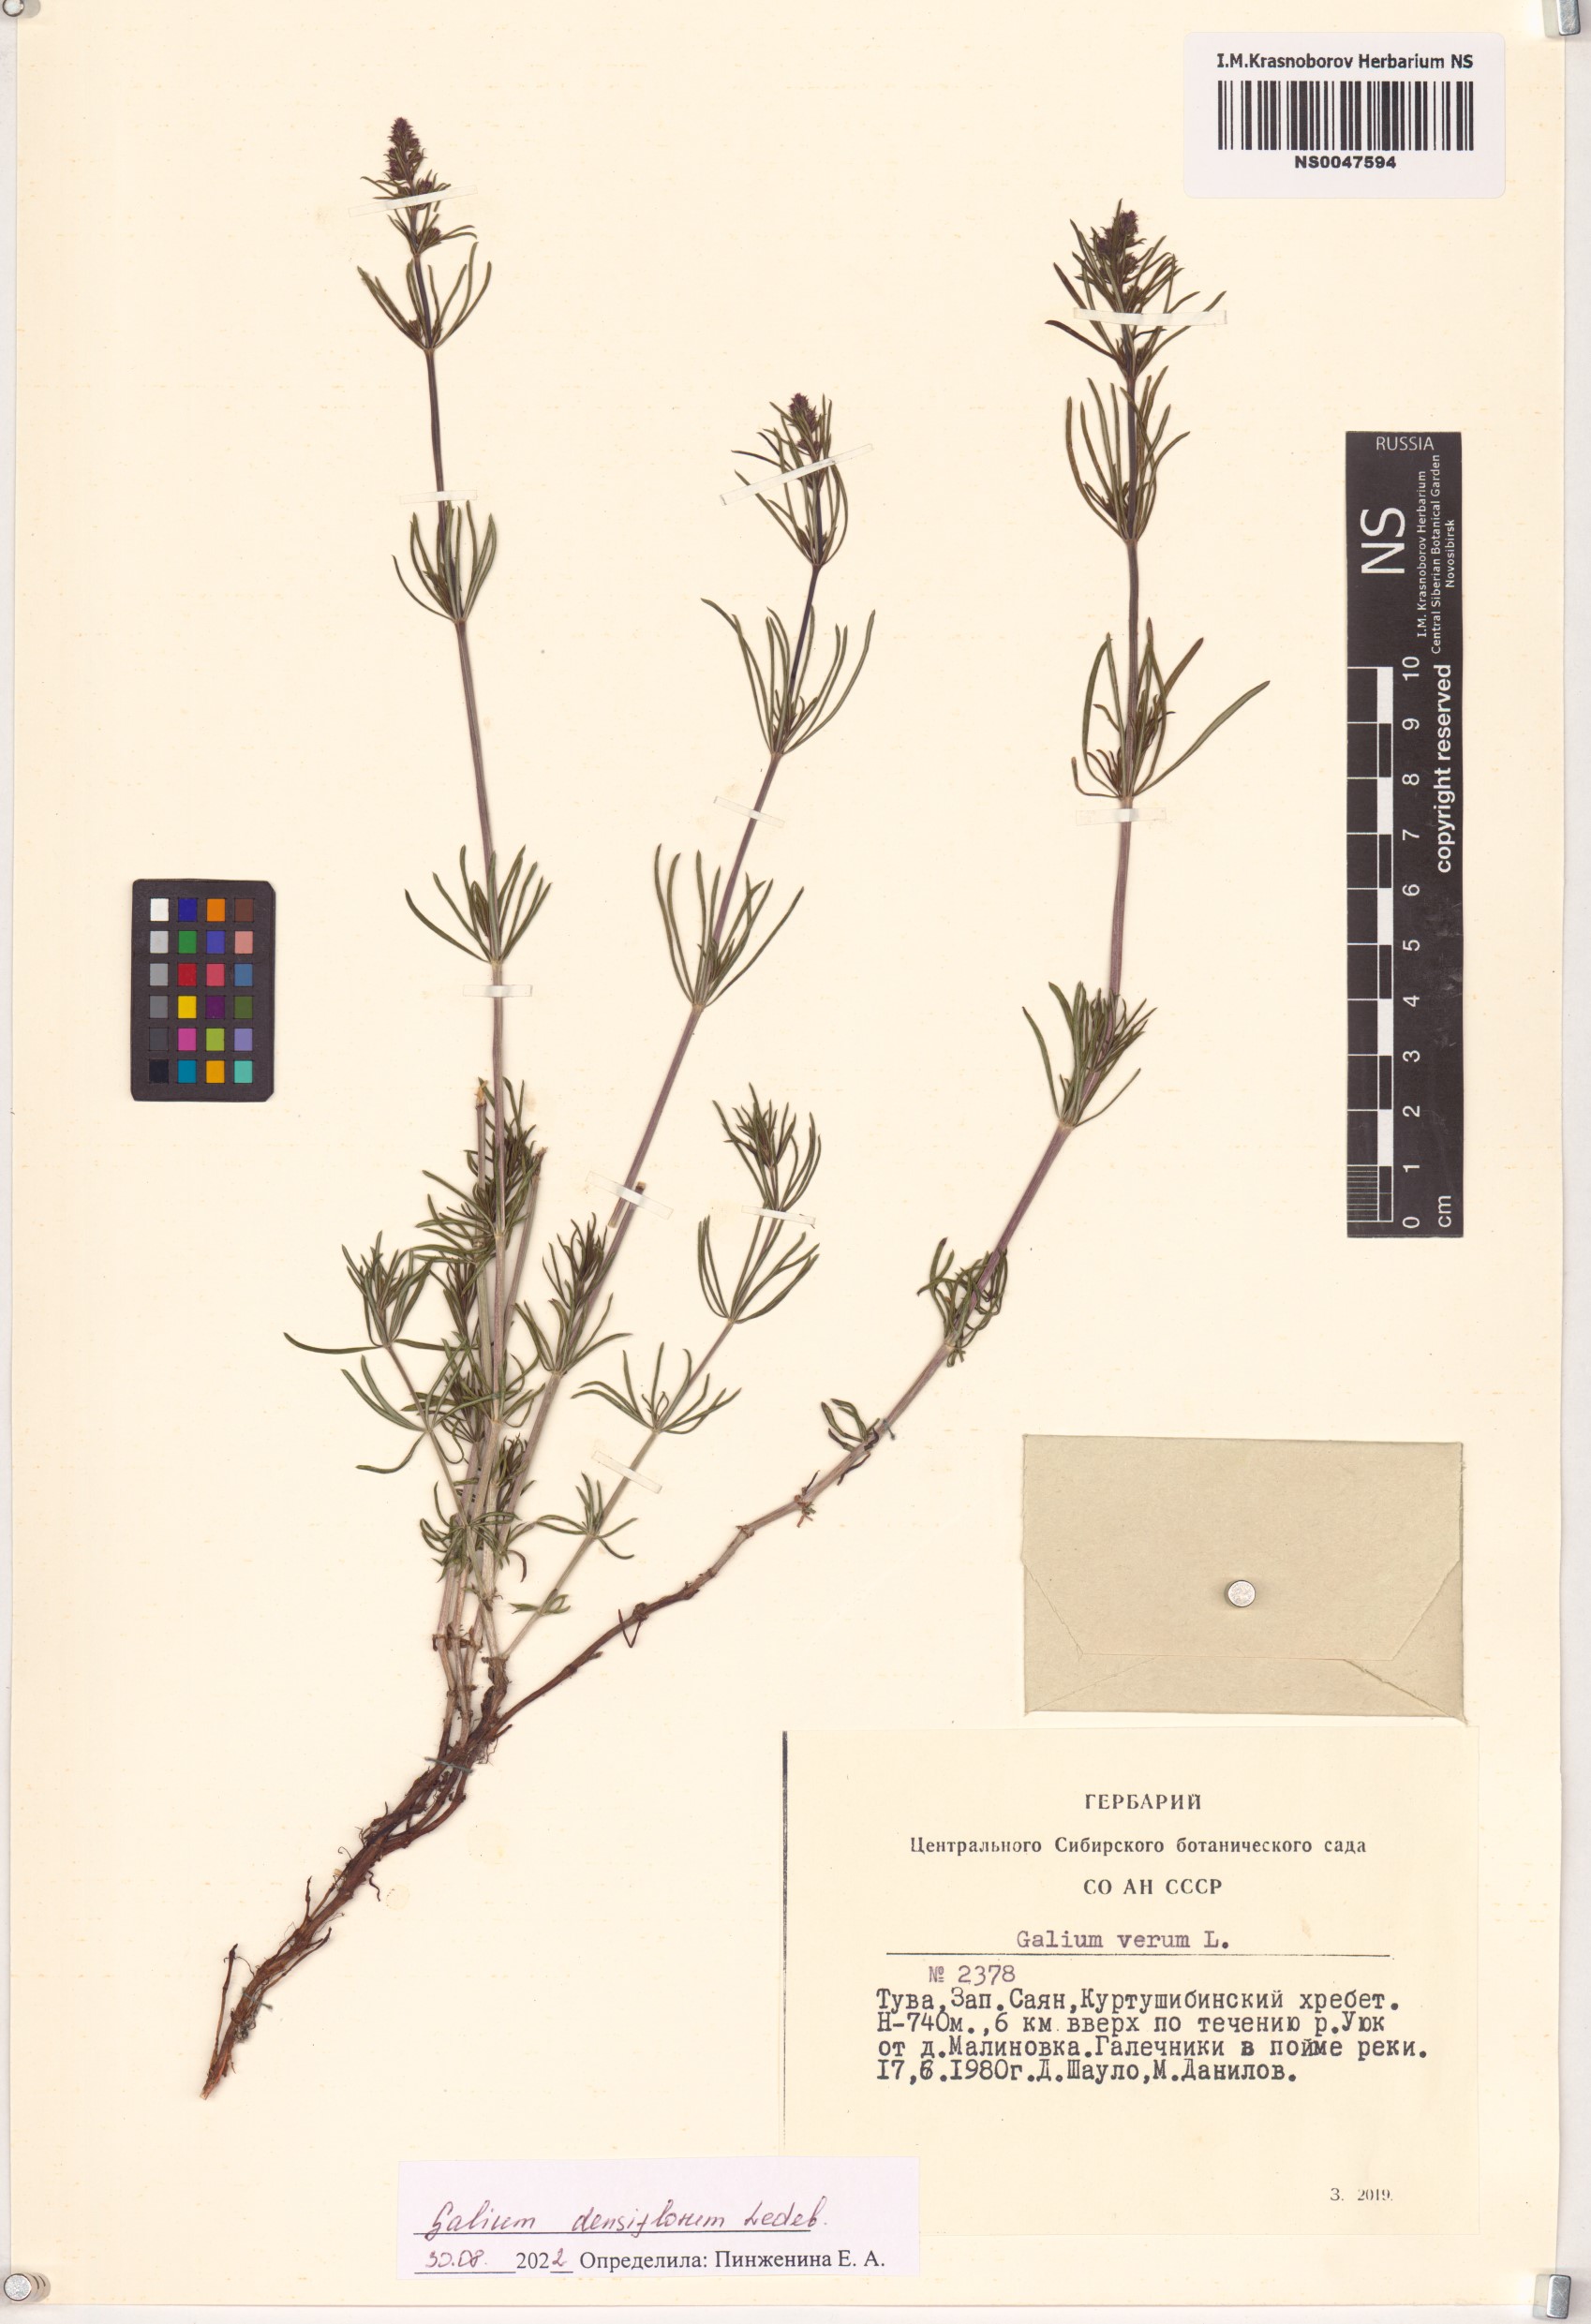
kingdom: Plantae
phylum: Tracheophyta
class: Magnoliopsida
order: Gentianales
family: Rubiaceae
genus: Galium
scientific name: Galium densiflorum
